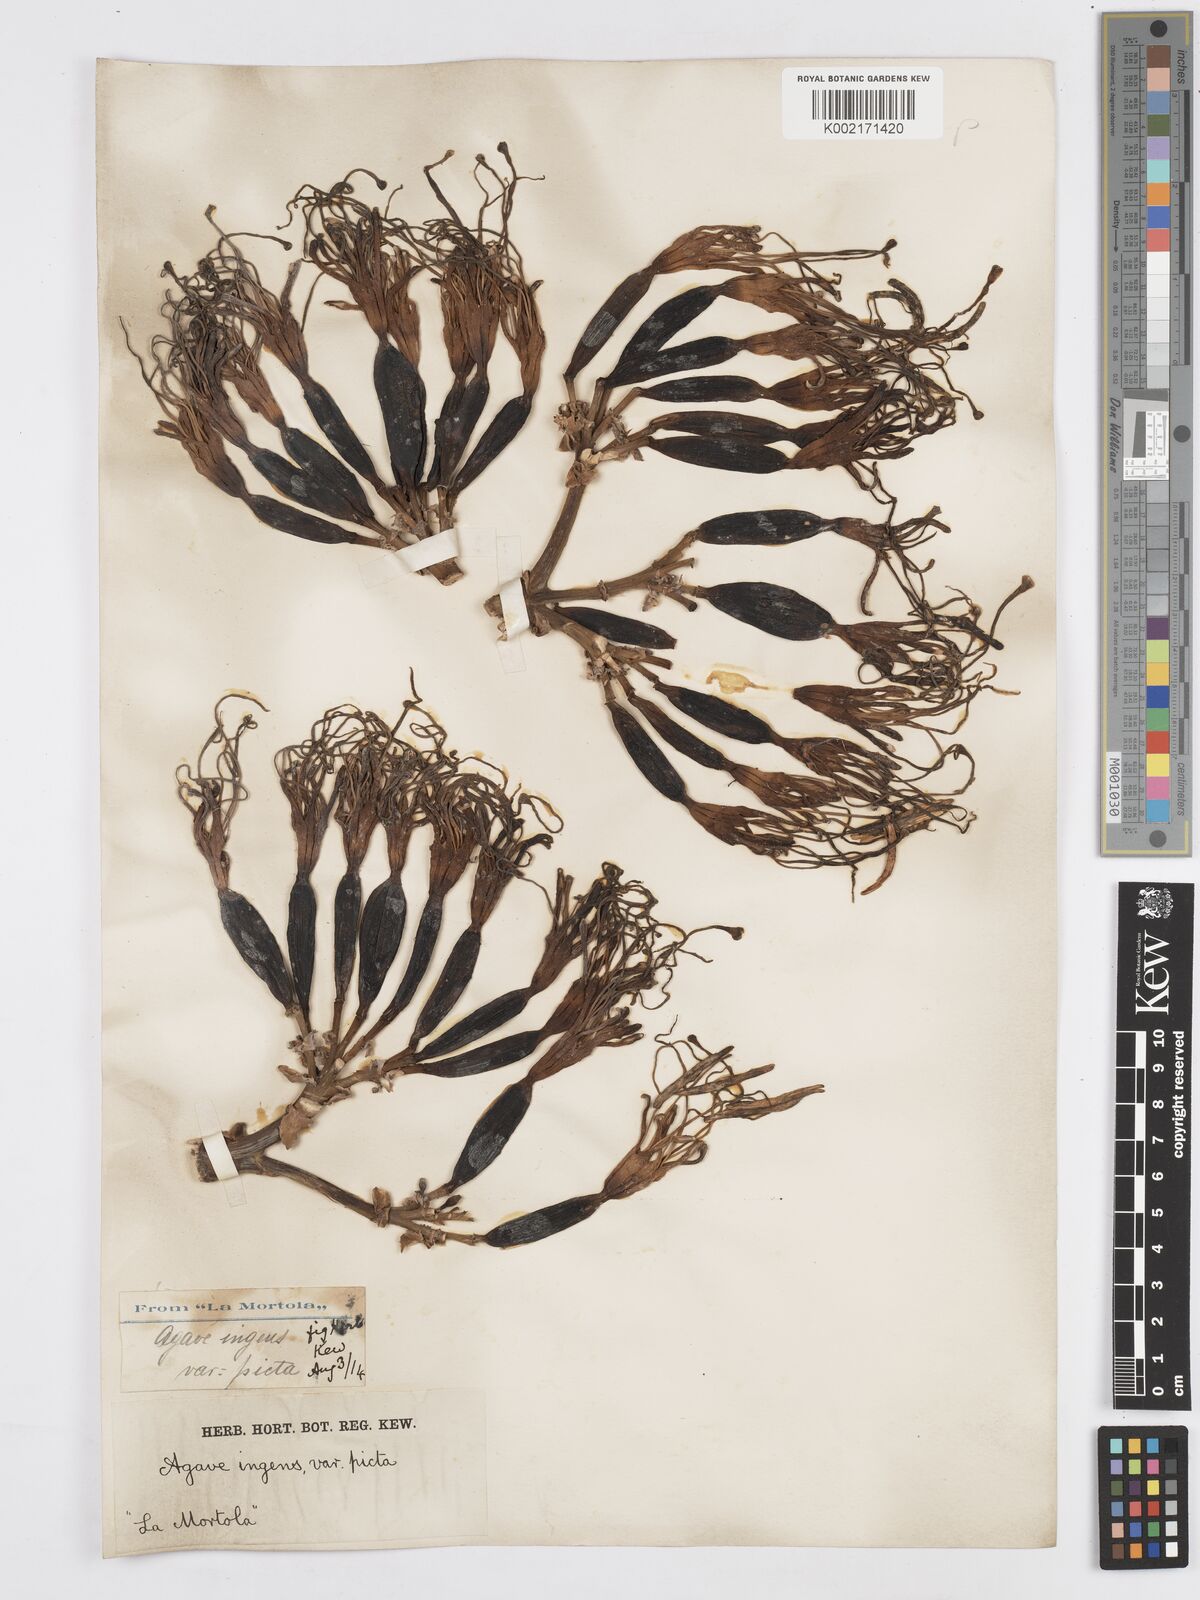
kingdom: Plantae
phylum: Tracheophyta
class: Liliopsida
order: Asparagales
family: Asparagaceae
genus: Agave
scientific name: Agave americana
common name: Centuryplant
